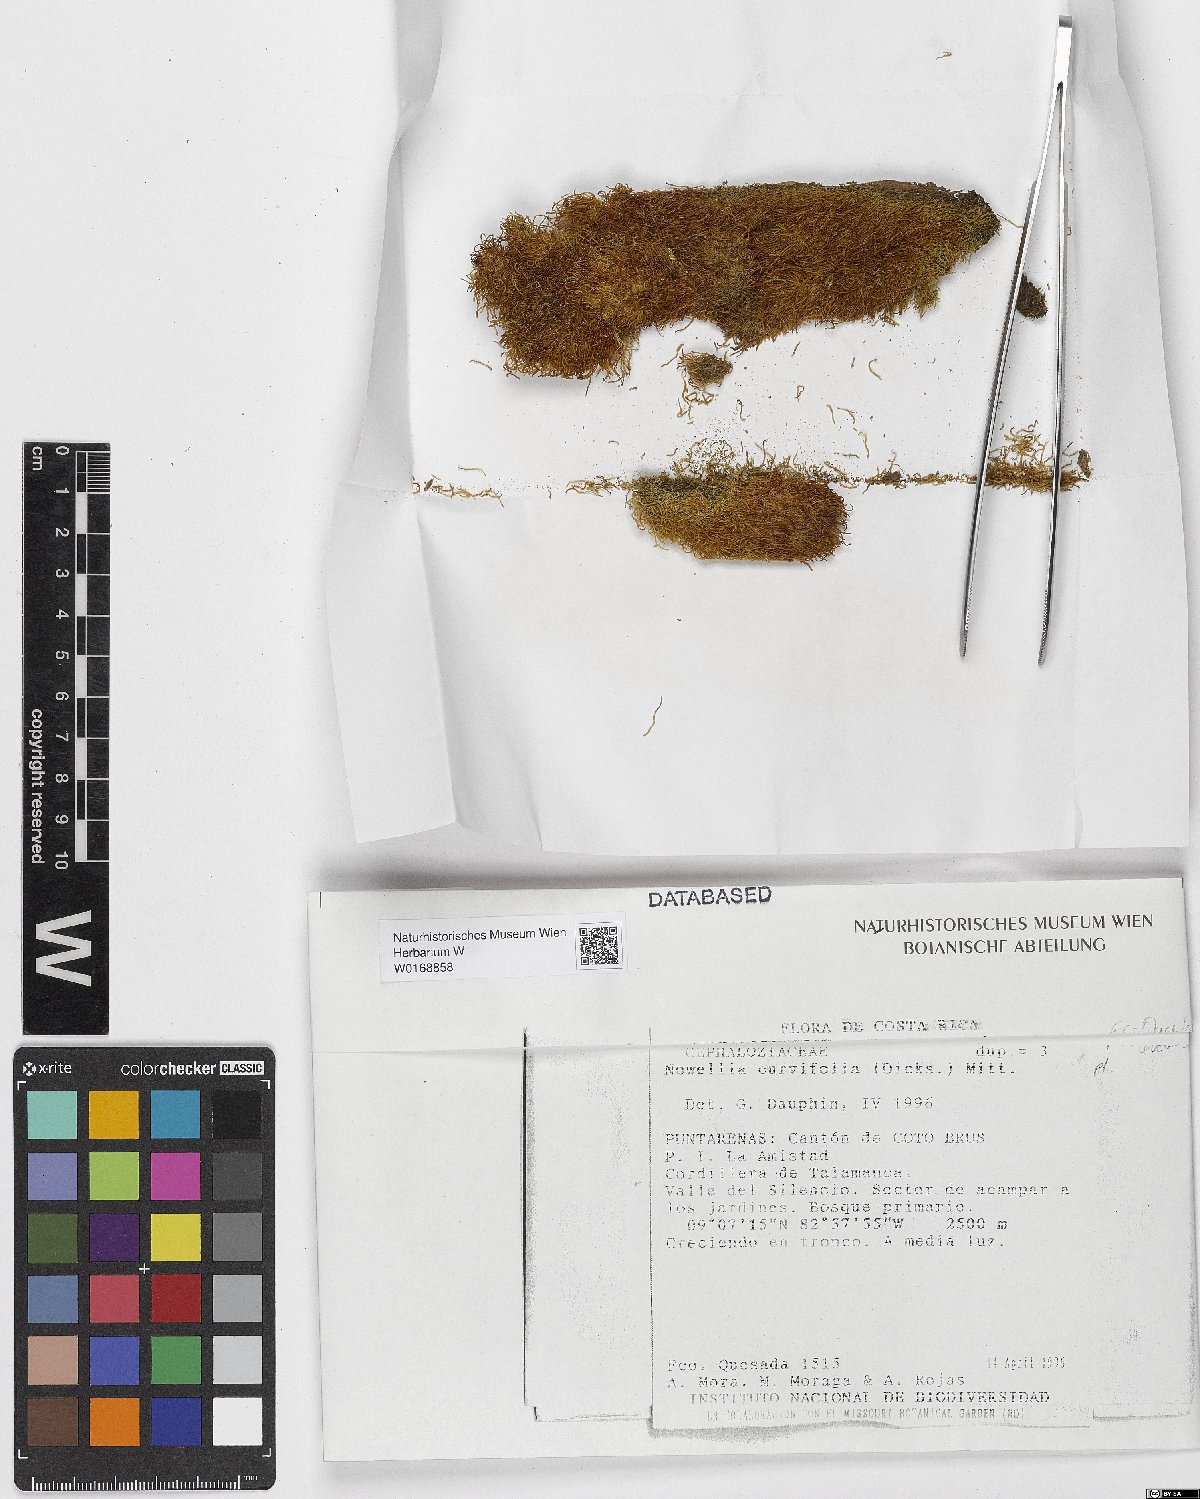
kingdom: Plantae
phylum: Marchantiophyta
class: Jungermanniopsida
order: Jungermanniales
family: Cephaloziaceae
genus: Nowellia
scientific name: Nowellia curvifolia
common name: Wood rustwort
